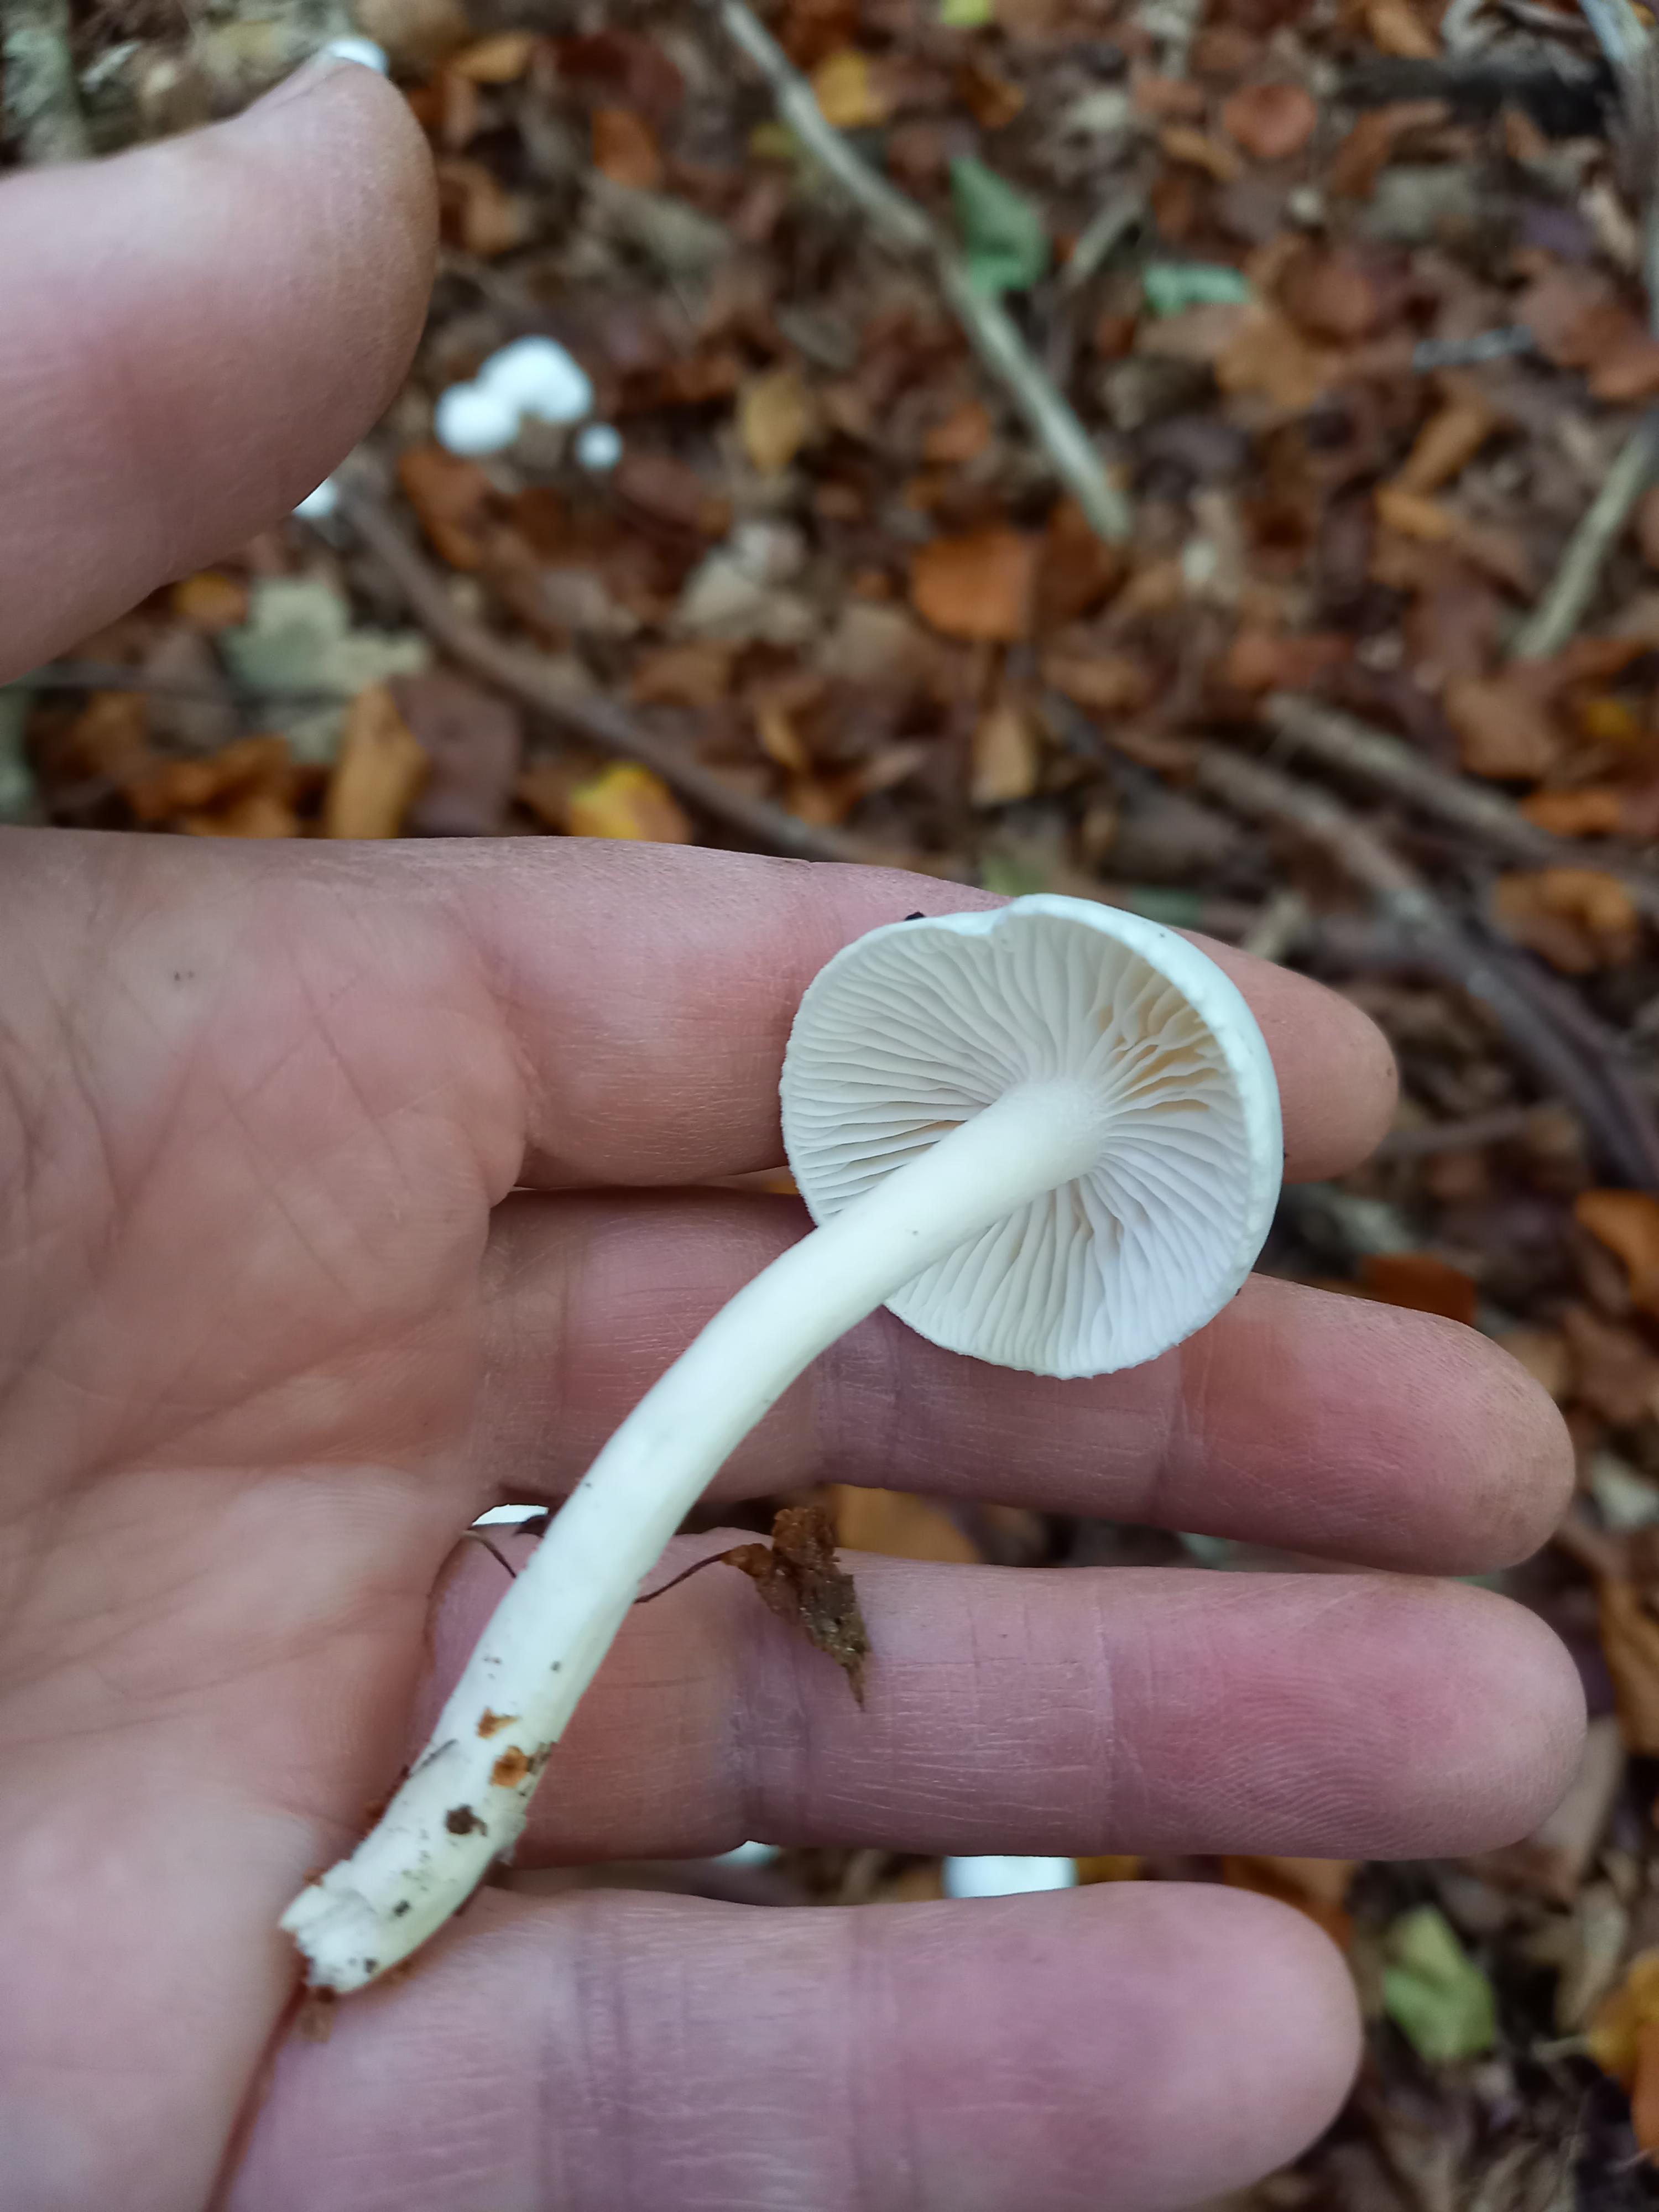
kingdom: Fungi
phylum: Basidiomycota
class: Agaricomycetes
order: Agaricales
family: Hygrophoraceae
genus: Hygrophorus
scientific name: Hygrophorus eburneus
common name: elfenbens-sneglehat
